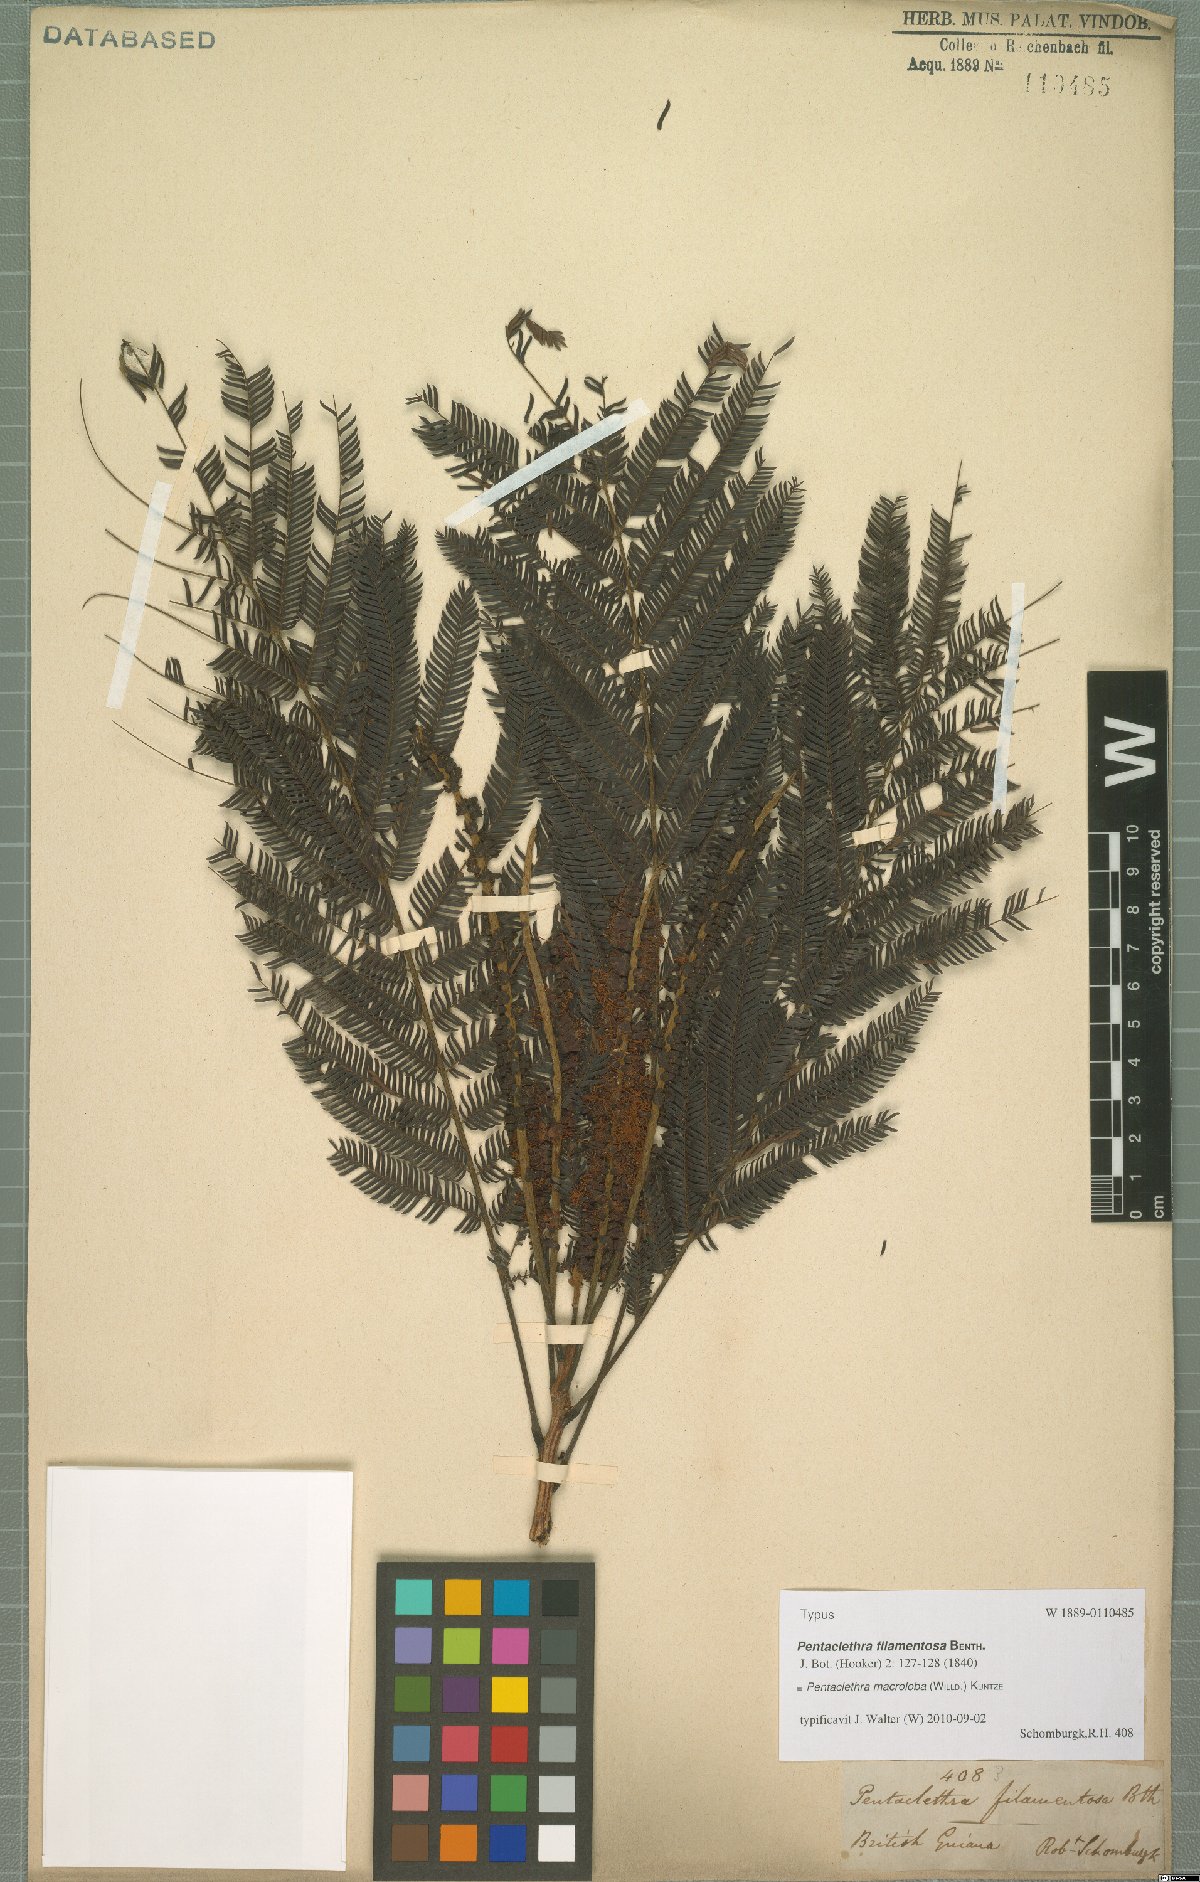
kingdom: Plantae
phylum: Tracheophyta
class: Magnoliopsida
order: Fabales
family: Fabaceae
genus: Pentaclethra
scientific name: Pentaclethra macroloba
